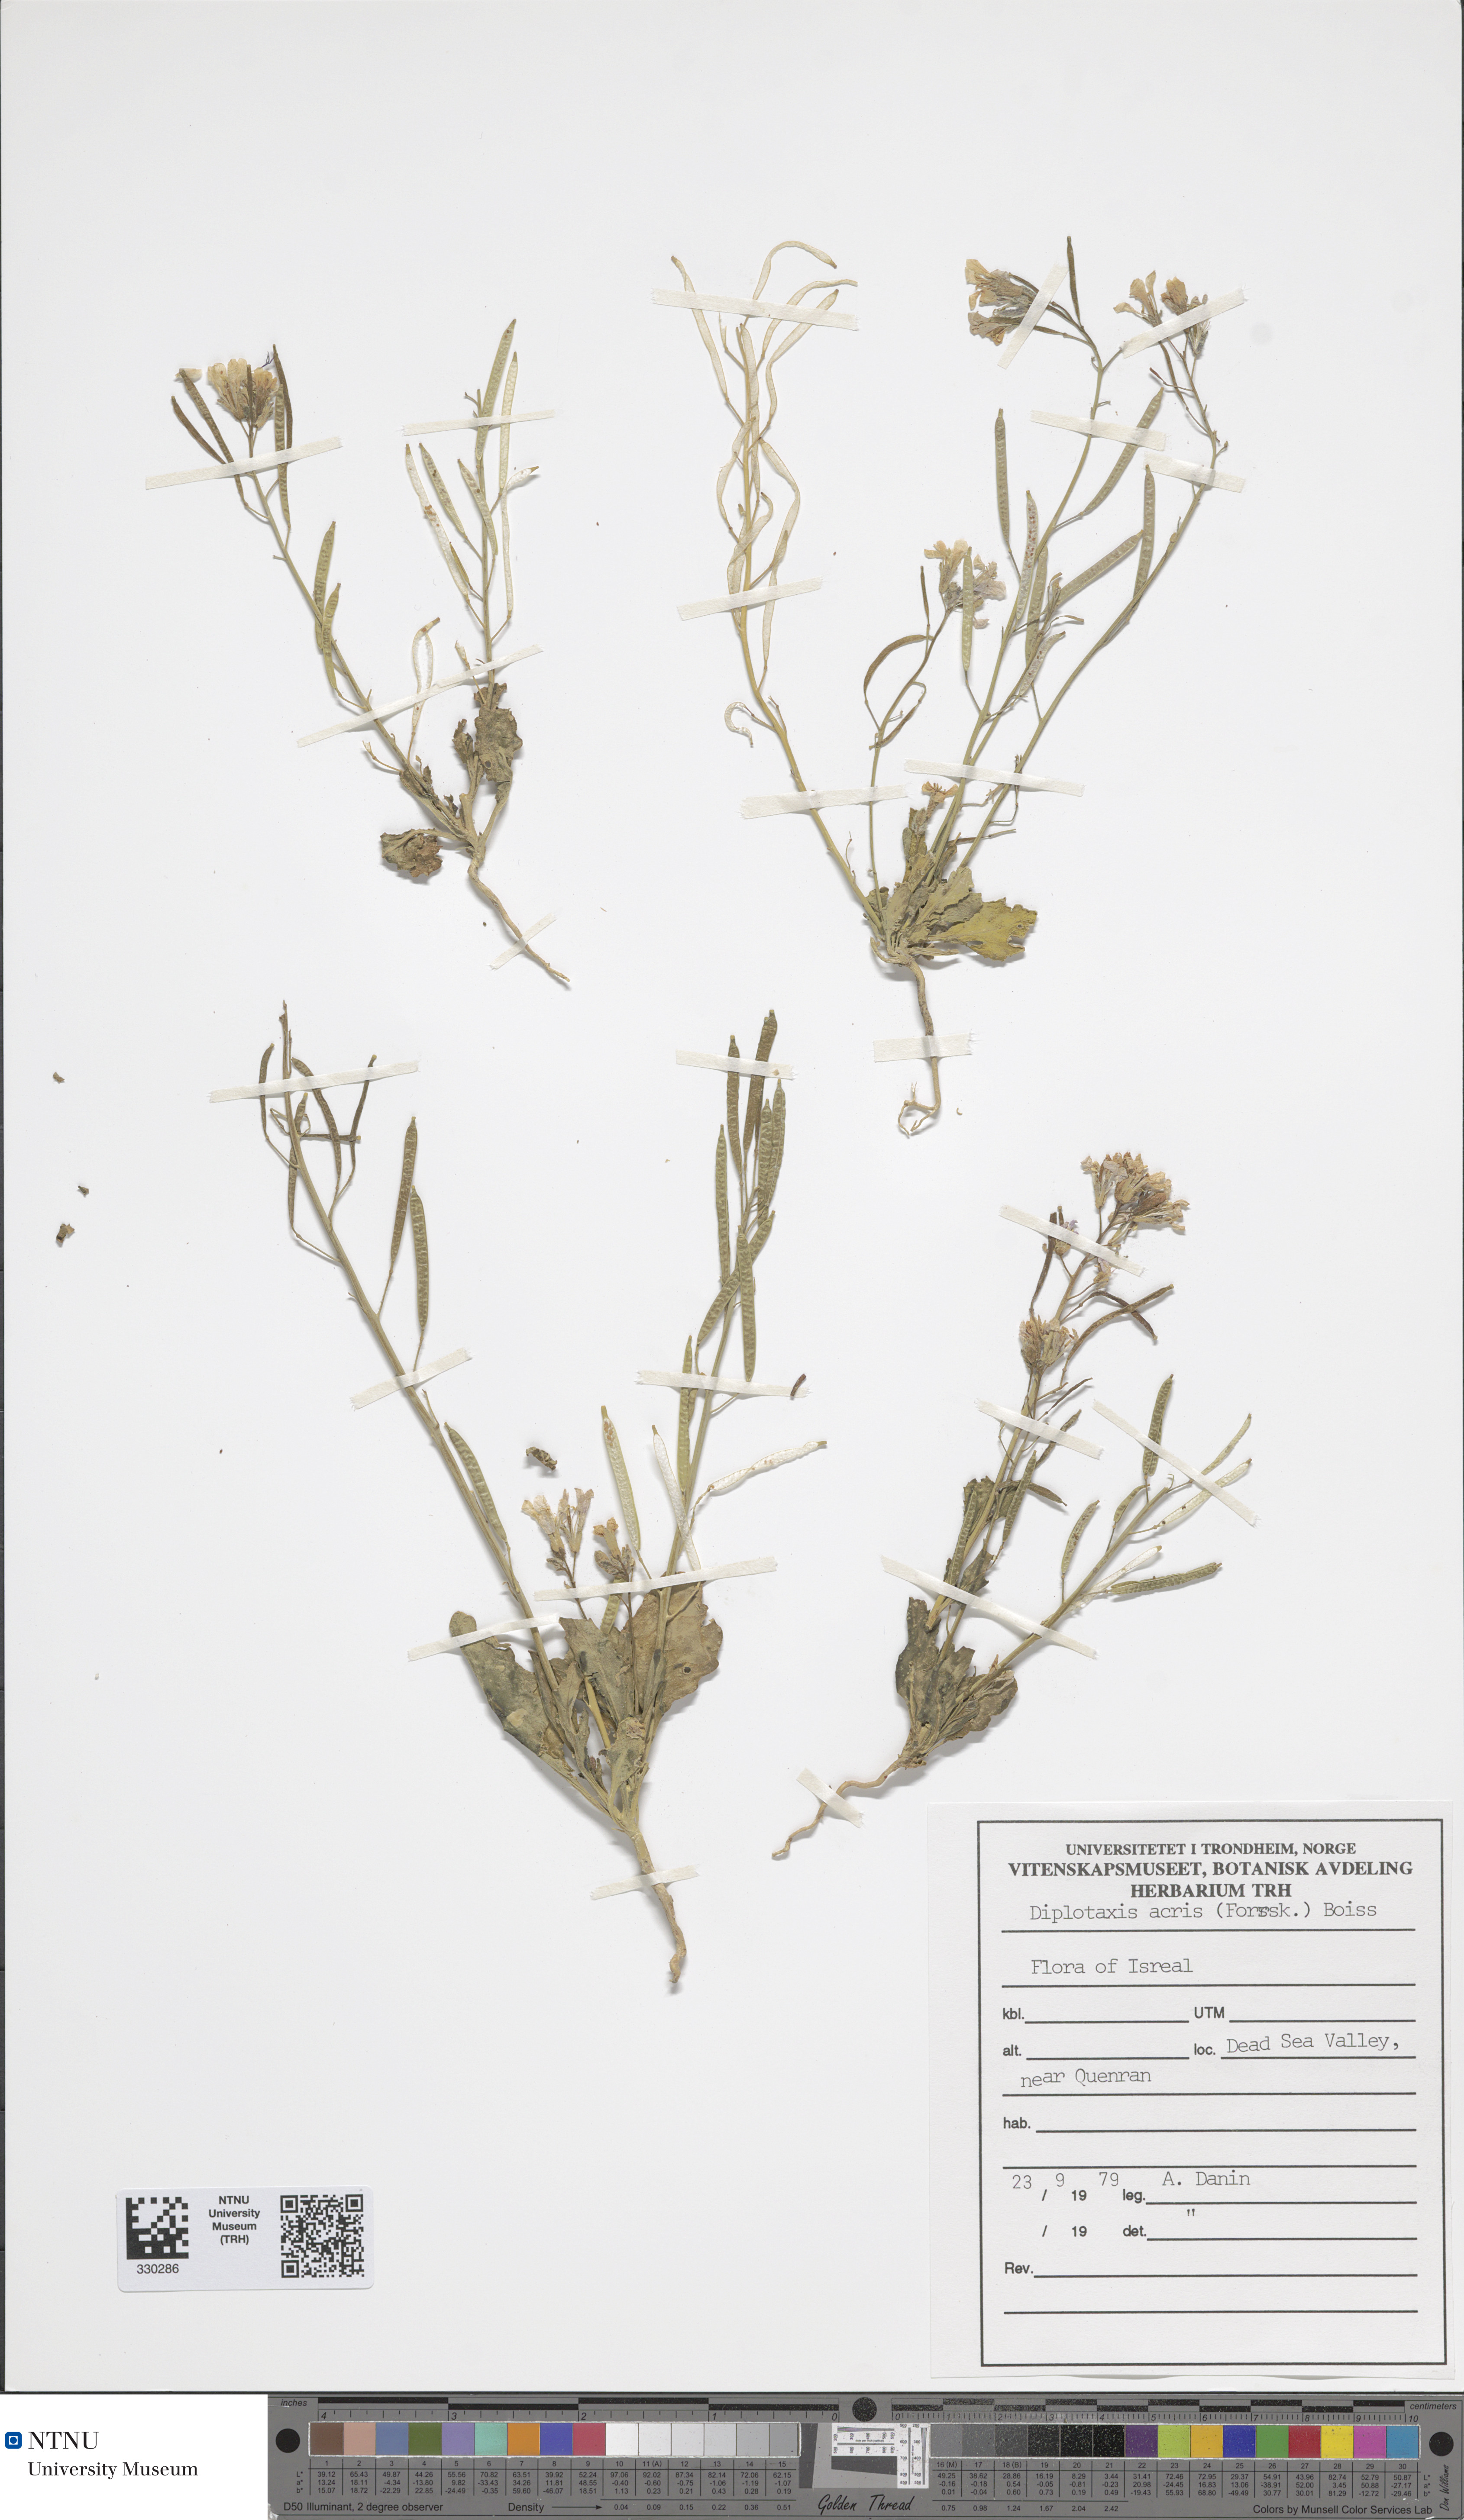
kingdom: Plantae
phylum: Tracheophyta
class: Magnoliopsida
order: Brassicales
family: Brassicaceae
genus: Diplotaxis
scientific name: Diplotaxis acris
